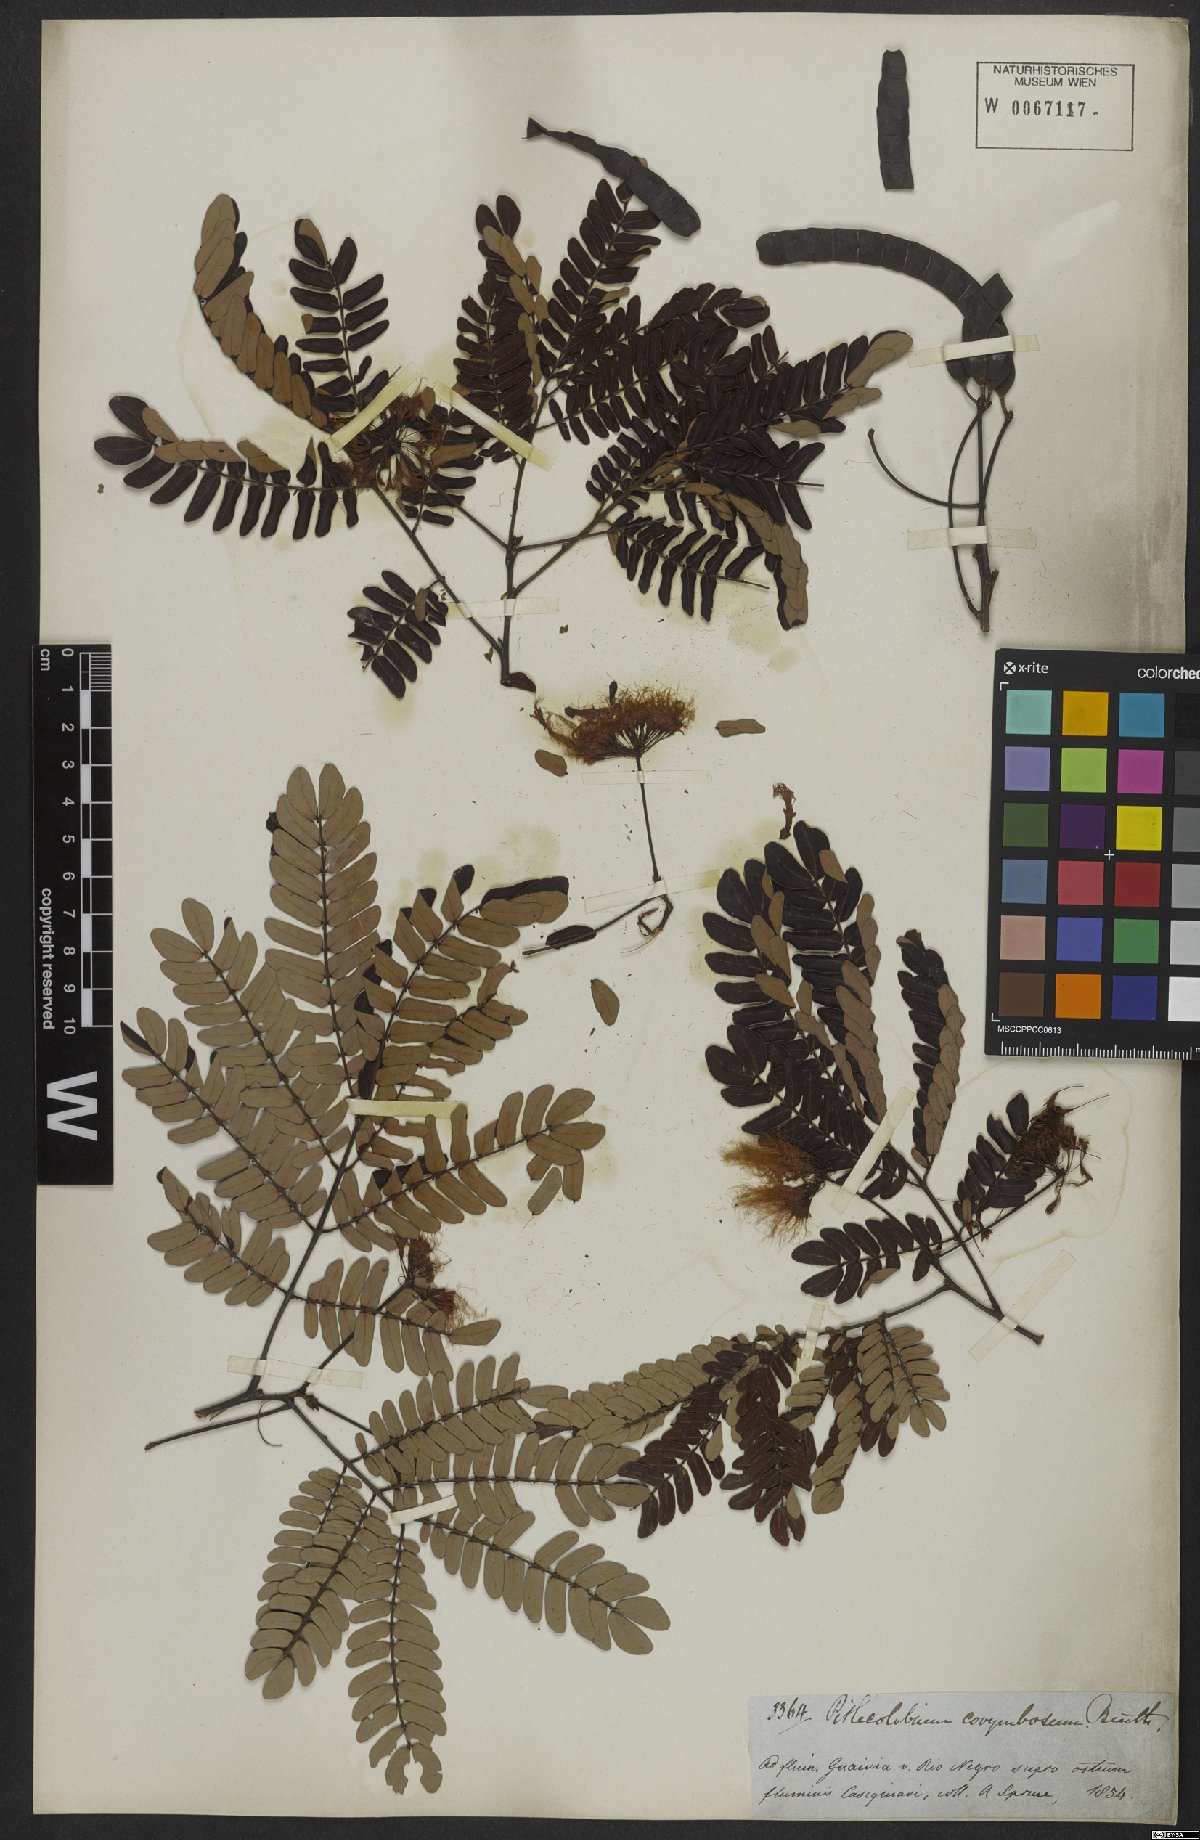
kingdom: Plantae
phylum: Tracheophyta
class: Magnoliopsida
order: Fabales
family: Fabaceae
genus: Hydrochorea
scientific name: Hydrochorea corymbosa
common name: Swamp manariballi
